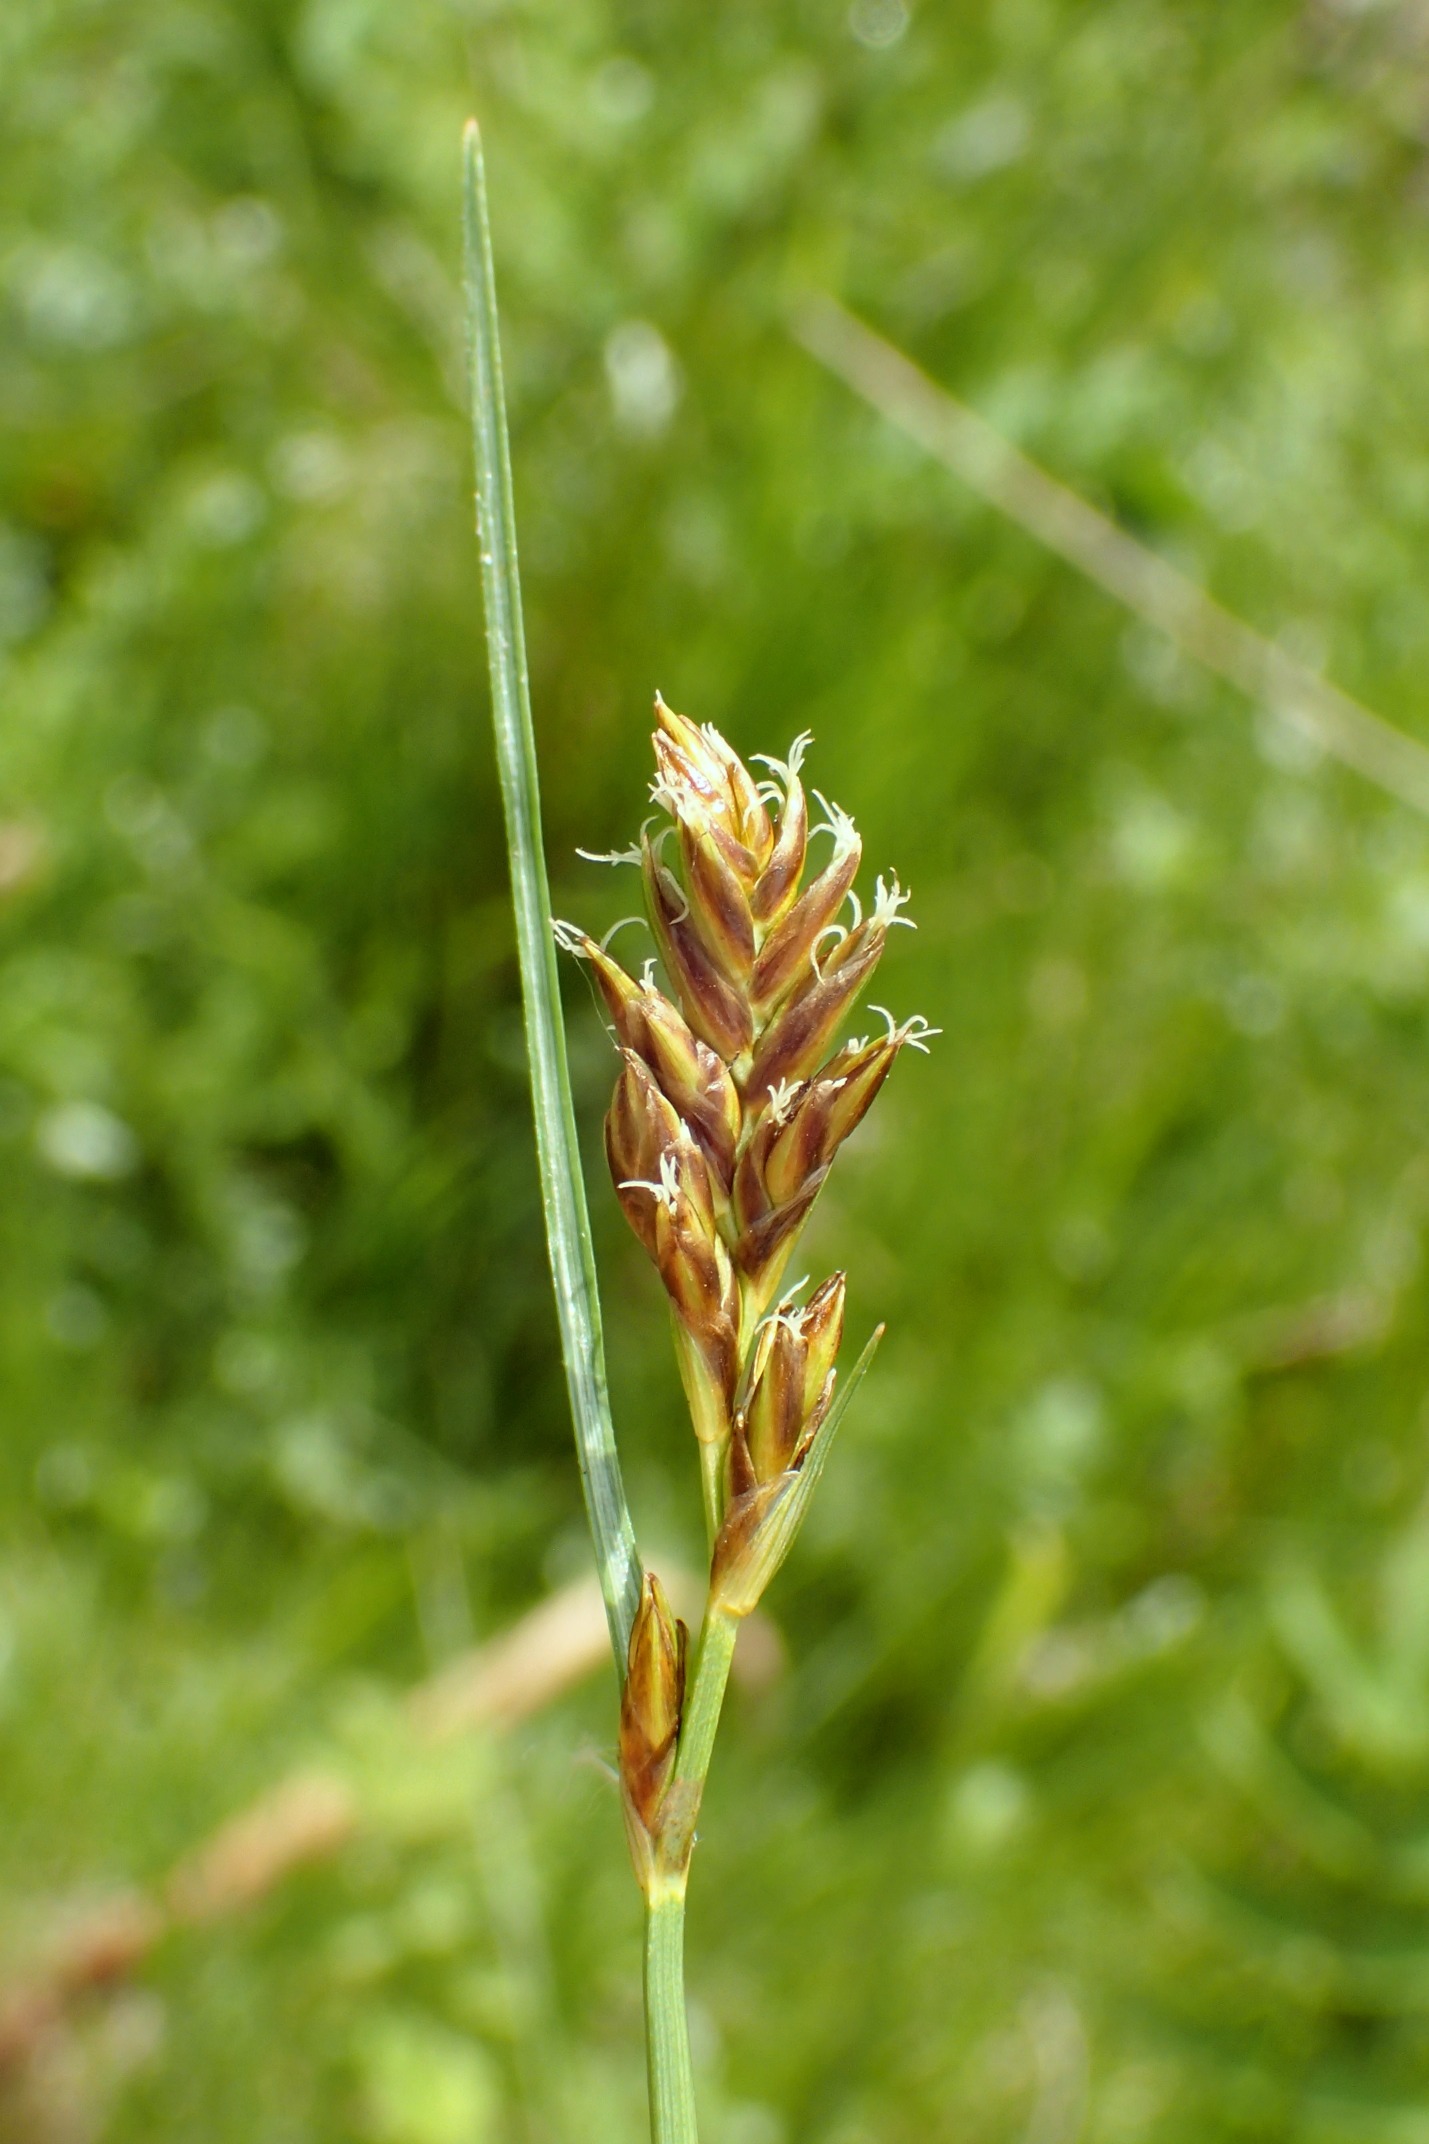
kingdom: Plantae
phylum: Tracheophyta
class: Liliopsida
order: Poales
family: Cyperaceae
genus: Blysmus
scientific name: Blysmus compressus
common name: Fladtrykt kogleaks
